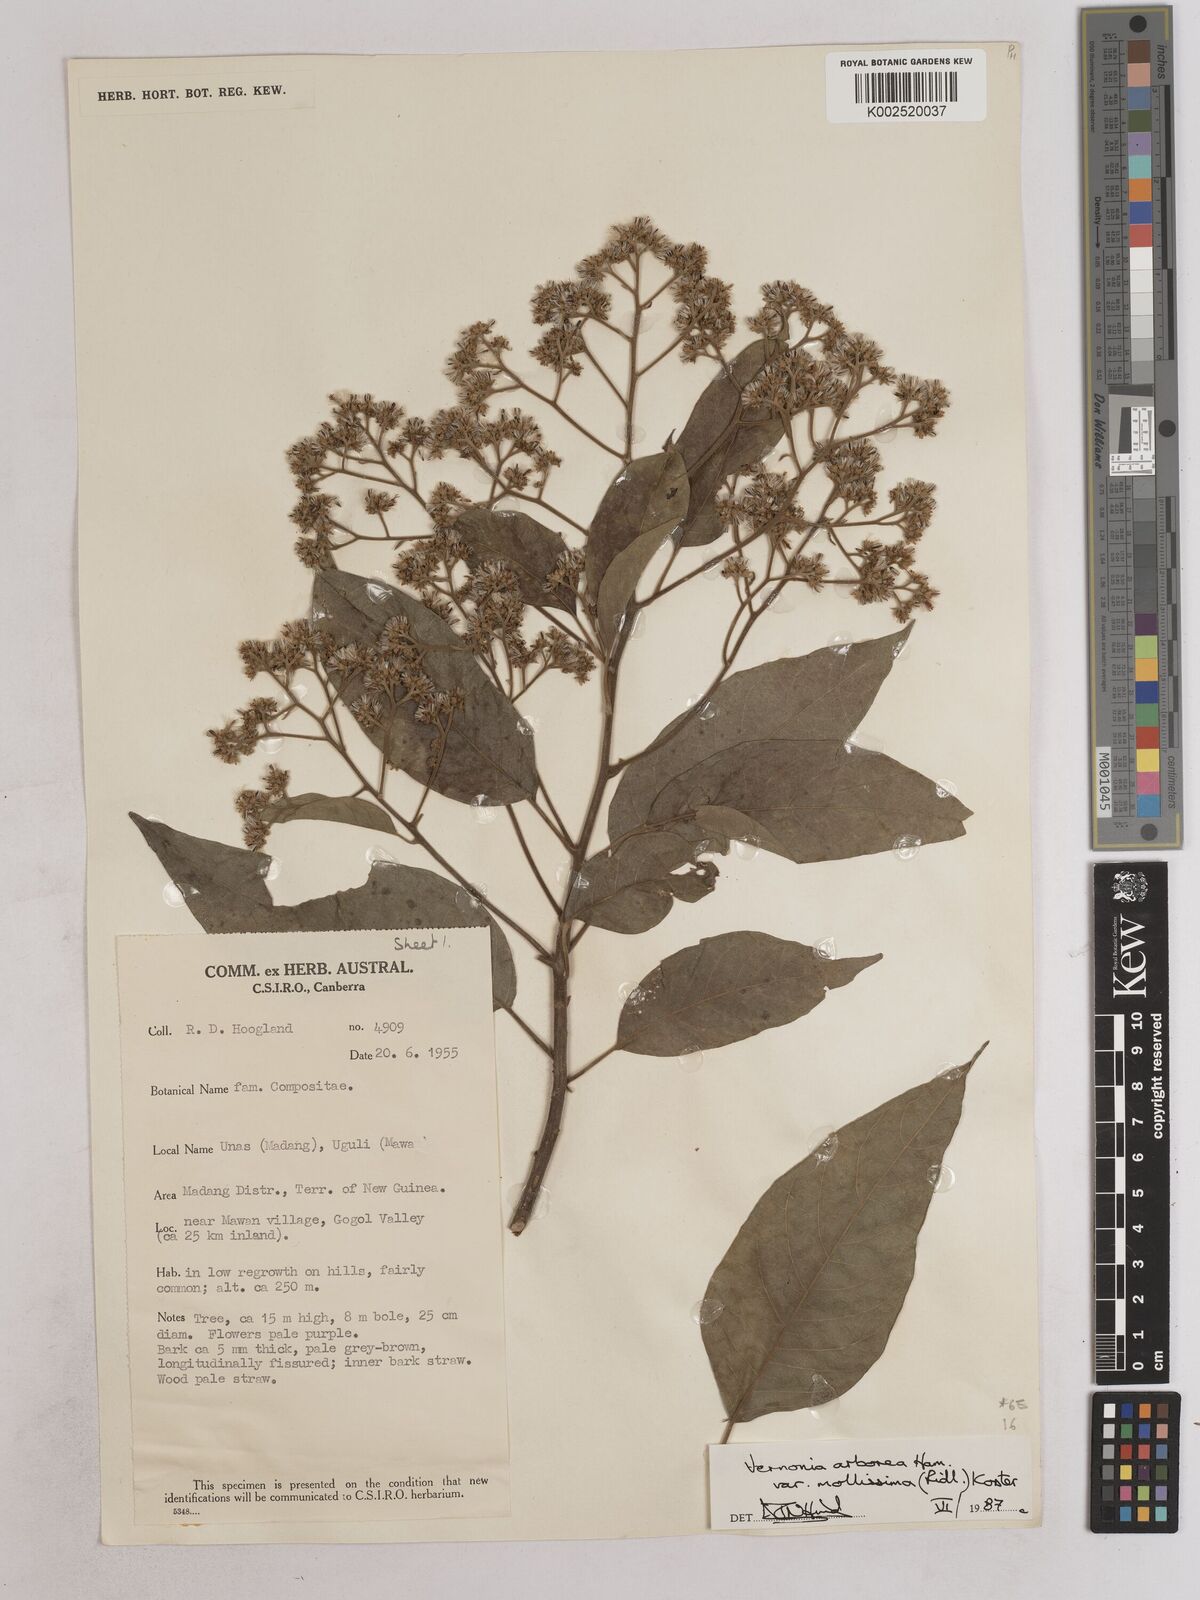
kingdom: Plantae
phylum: Tracheophyta
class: Magnoliopsida
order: Asterales
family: Asteraceae
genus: Strobocalyx
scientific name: Strobocalyx arborea
